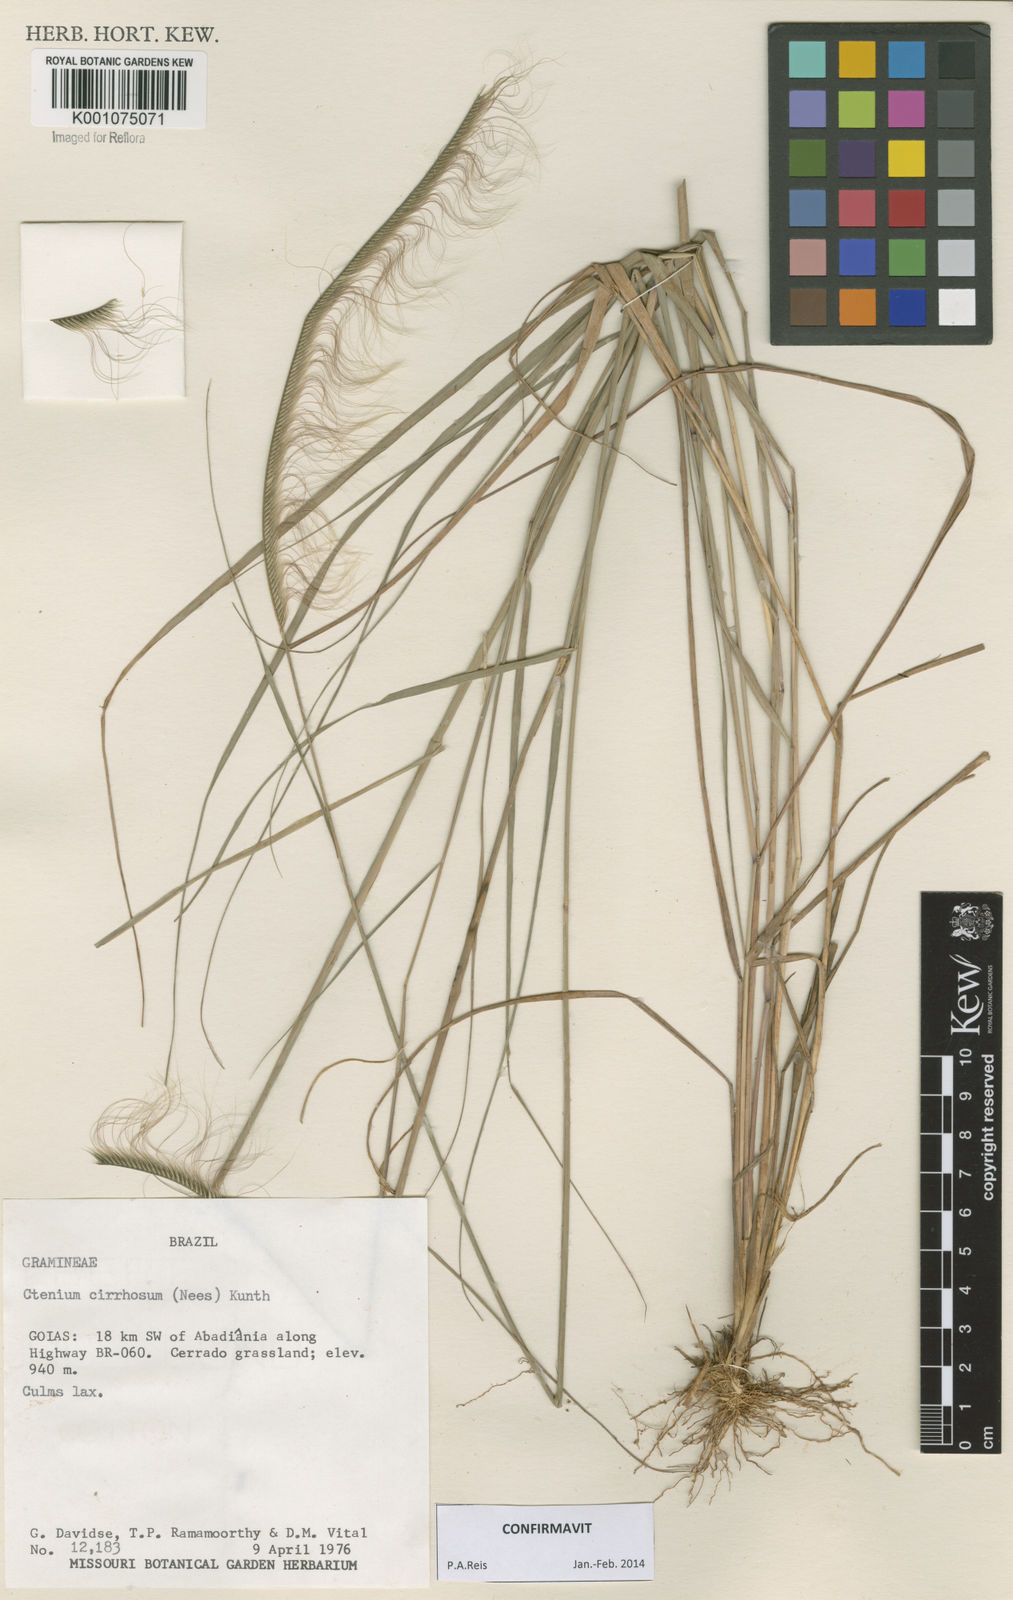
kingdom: Plantae
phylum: Tracheophyta
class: Liliopsida
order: Poales
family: Poaceae
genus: Ctenium
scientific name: Ctenium cirrhosum
